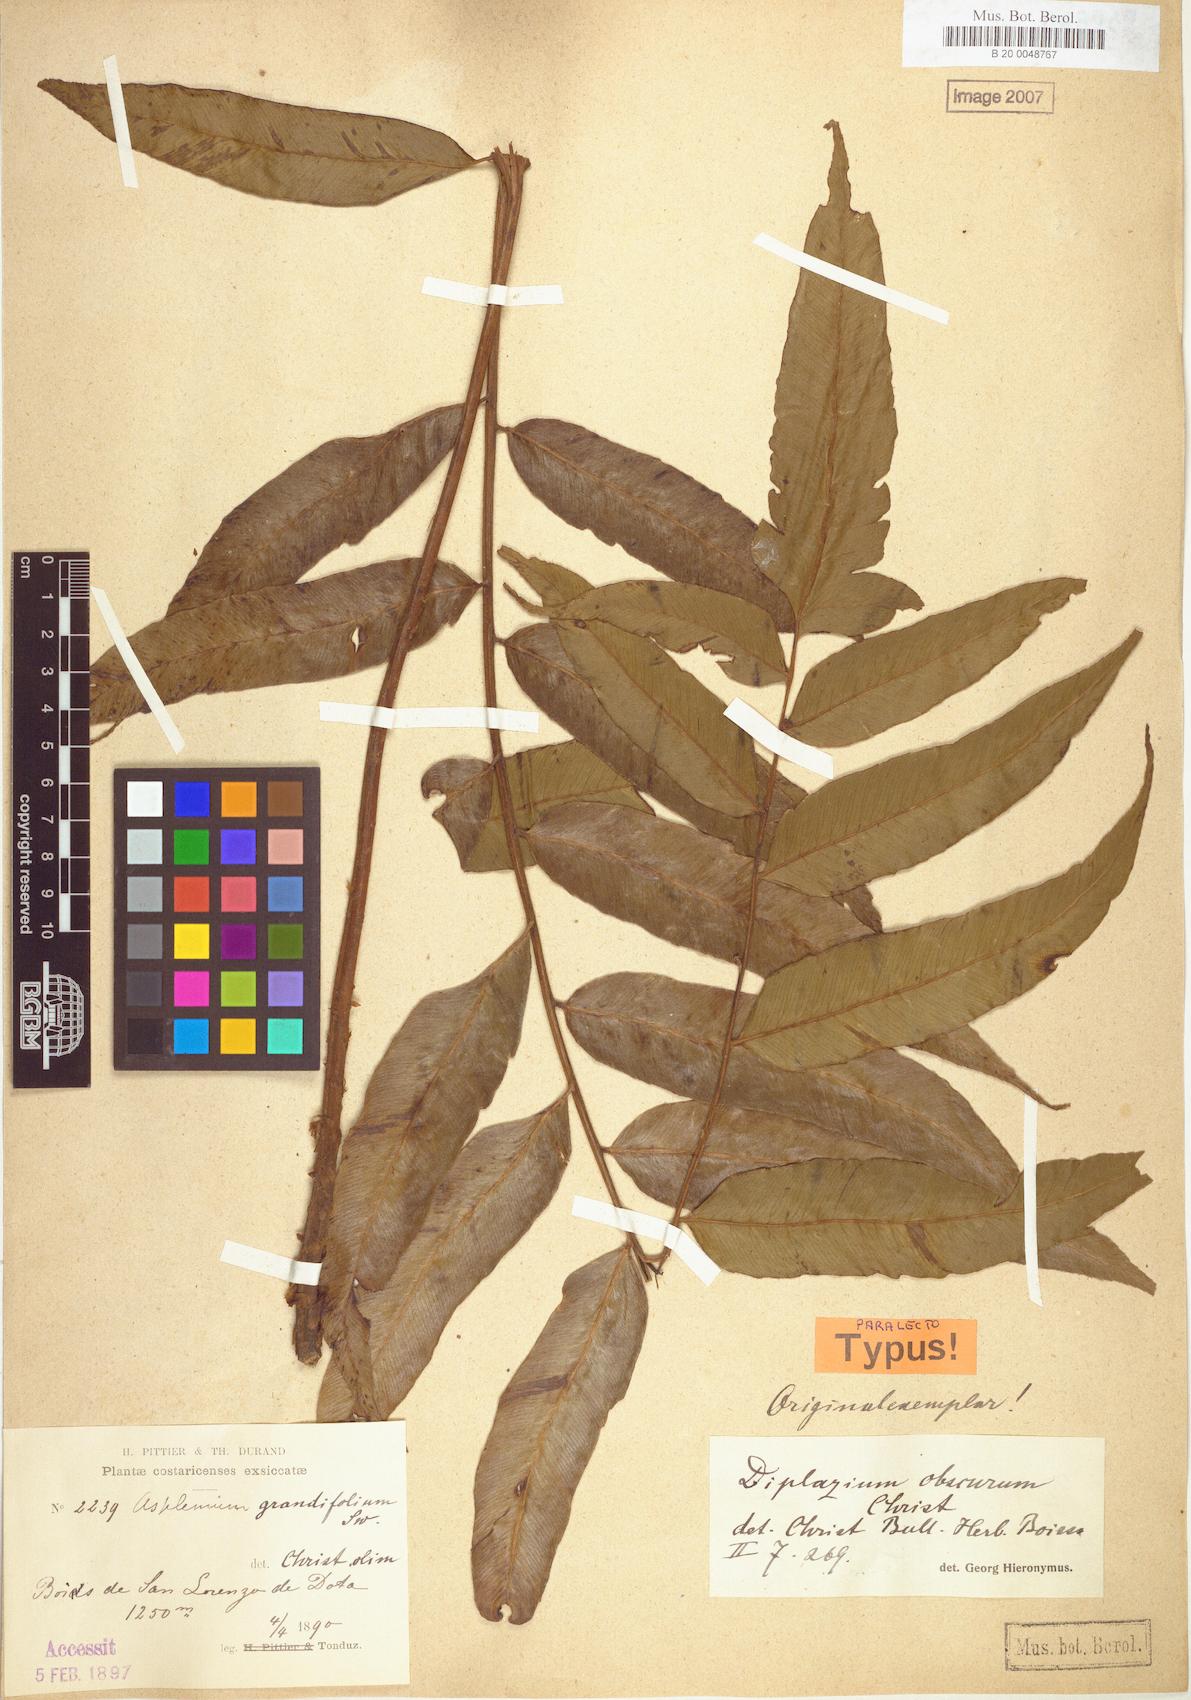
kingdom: Plantae
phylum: Tracheophyta
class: Polypodiopsida
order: Polypodiales
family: Athyriaceae
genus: Diplazium
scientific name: Diplazium obscurum
